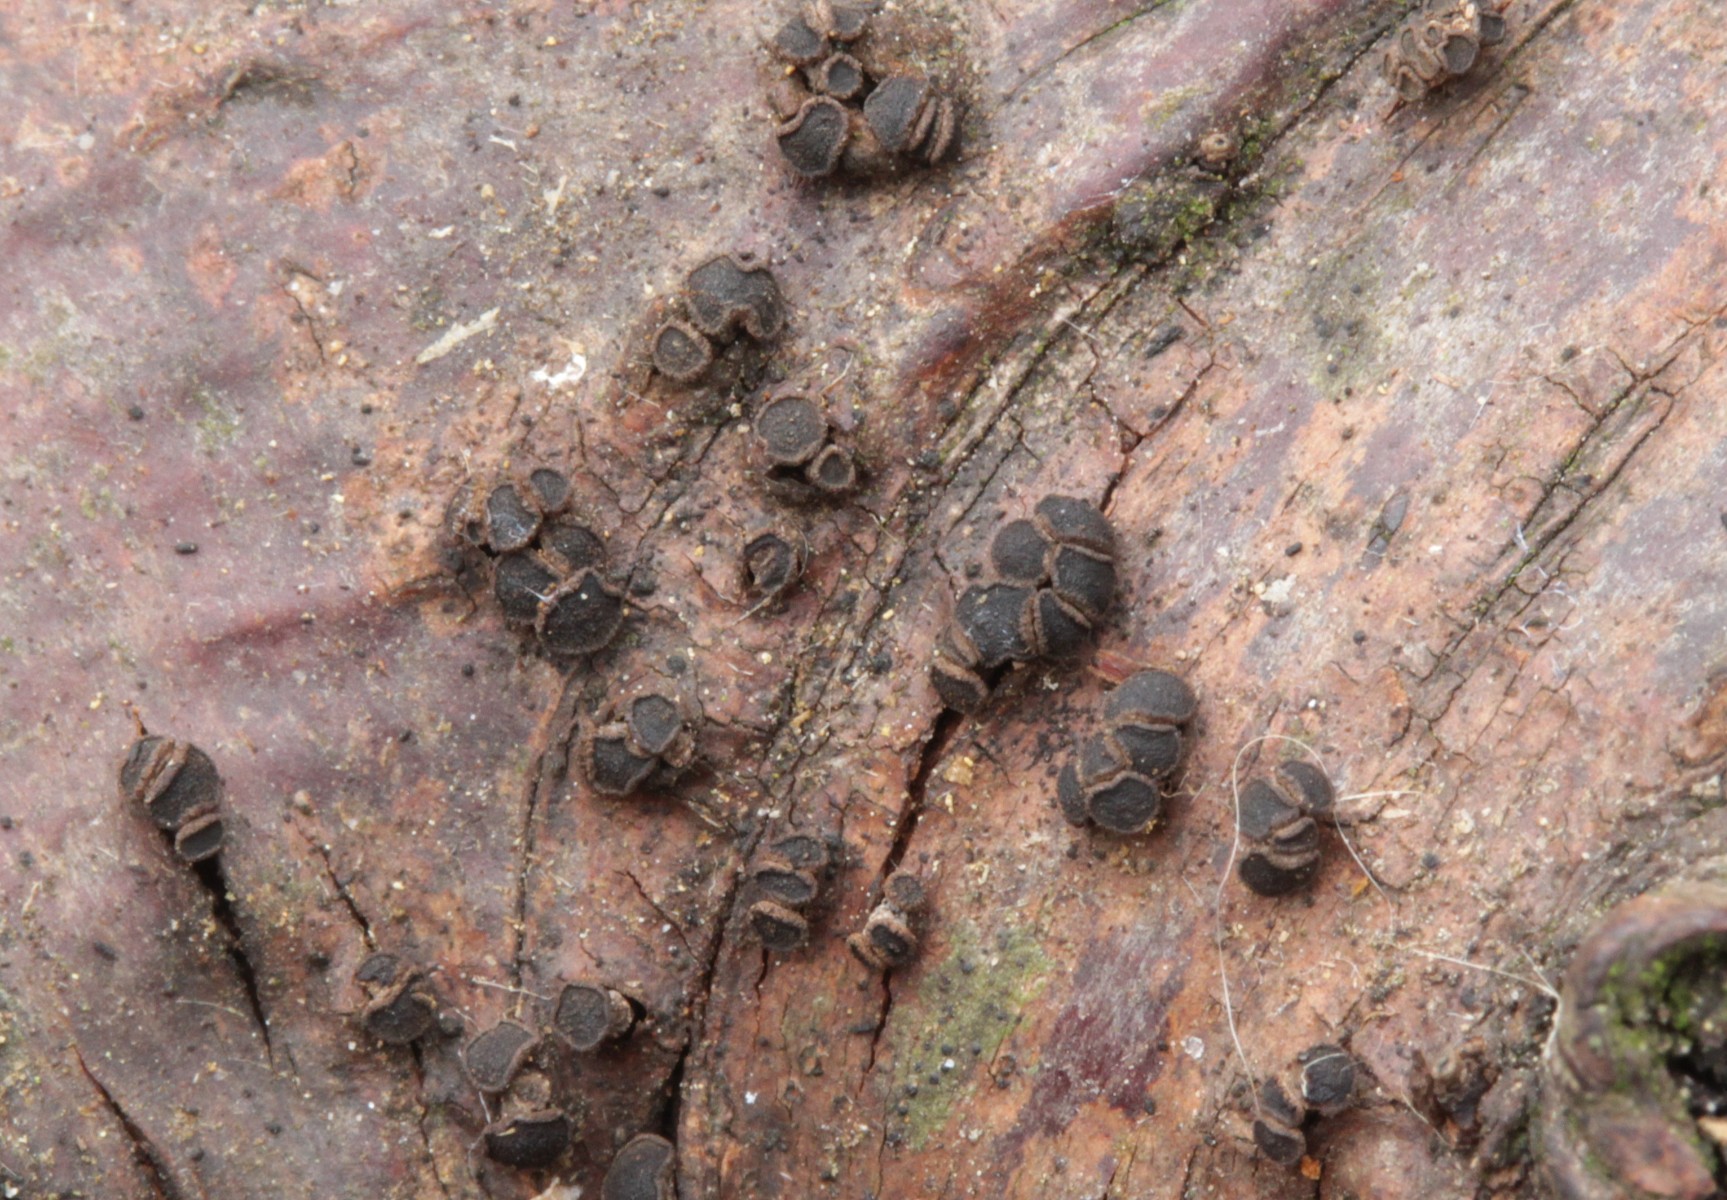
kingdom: Fungi
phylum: Ascomycota
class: Leotiomycetes
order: Helotiales
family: Dermateaceae
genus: Dermea
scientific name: Dermea prunastri
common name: blomme-klyngeskive
